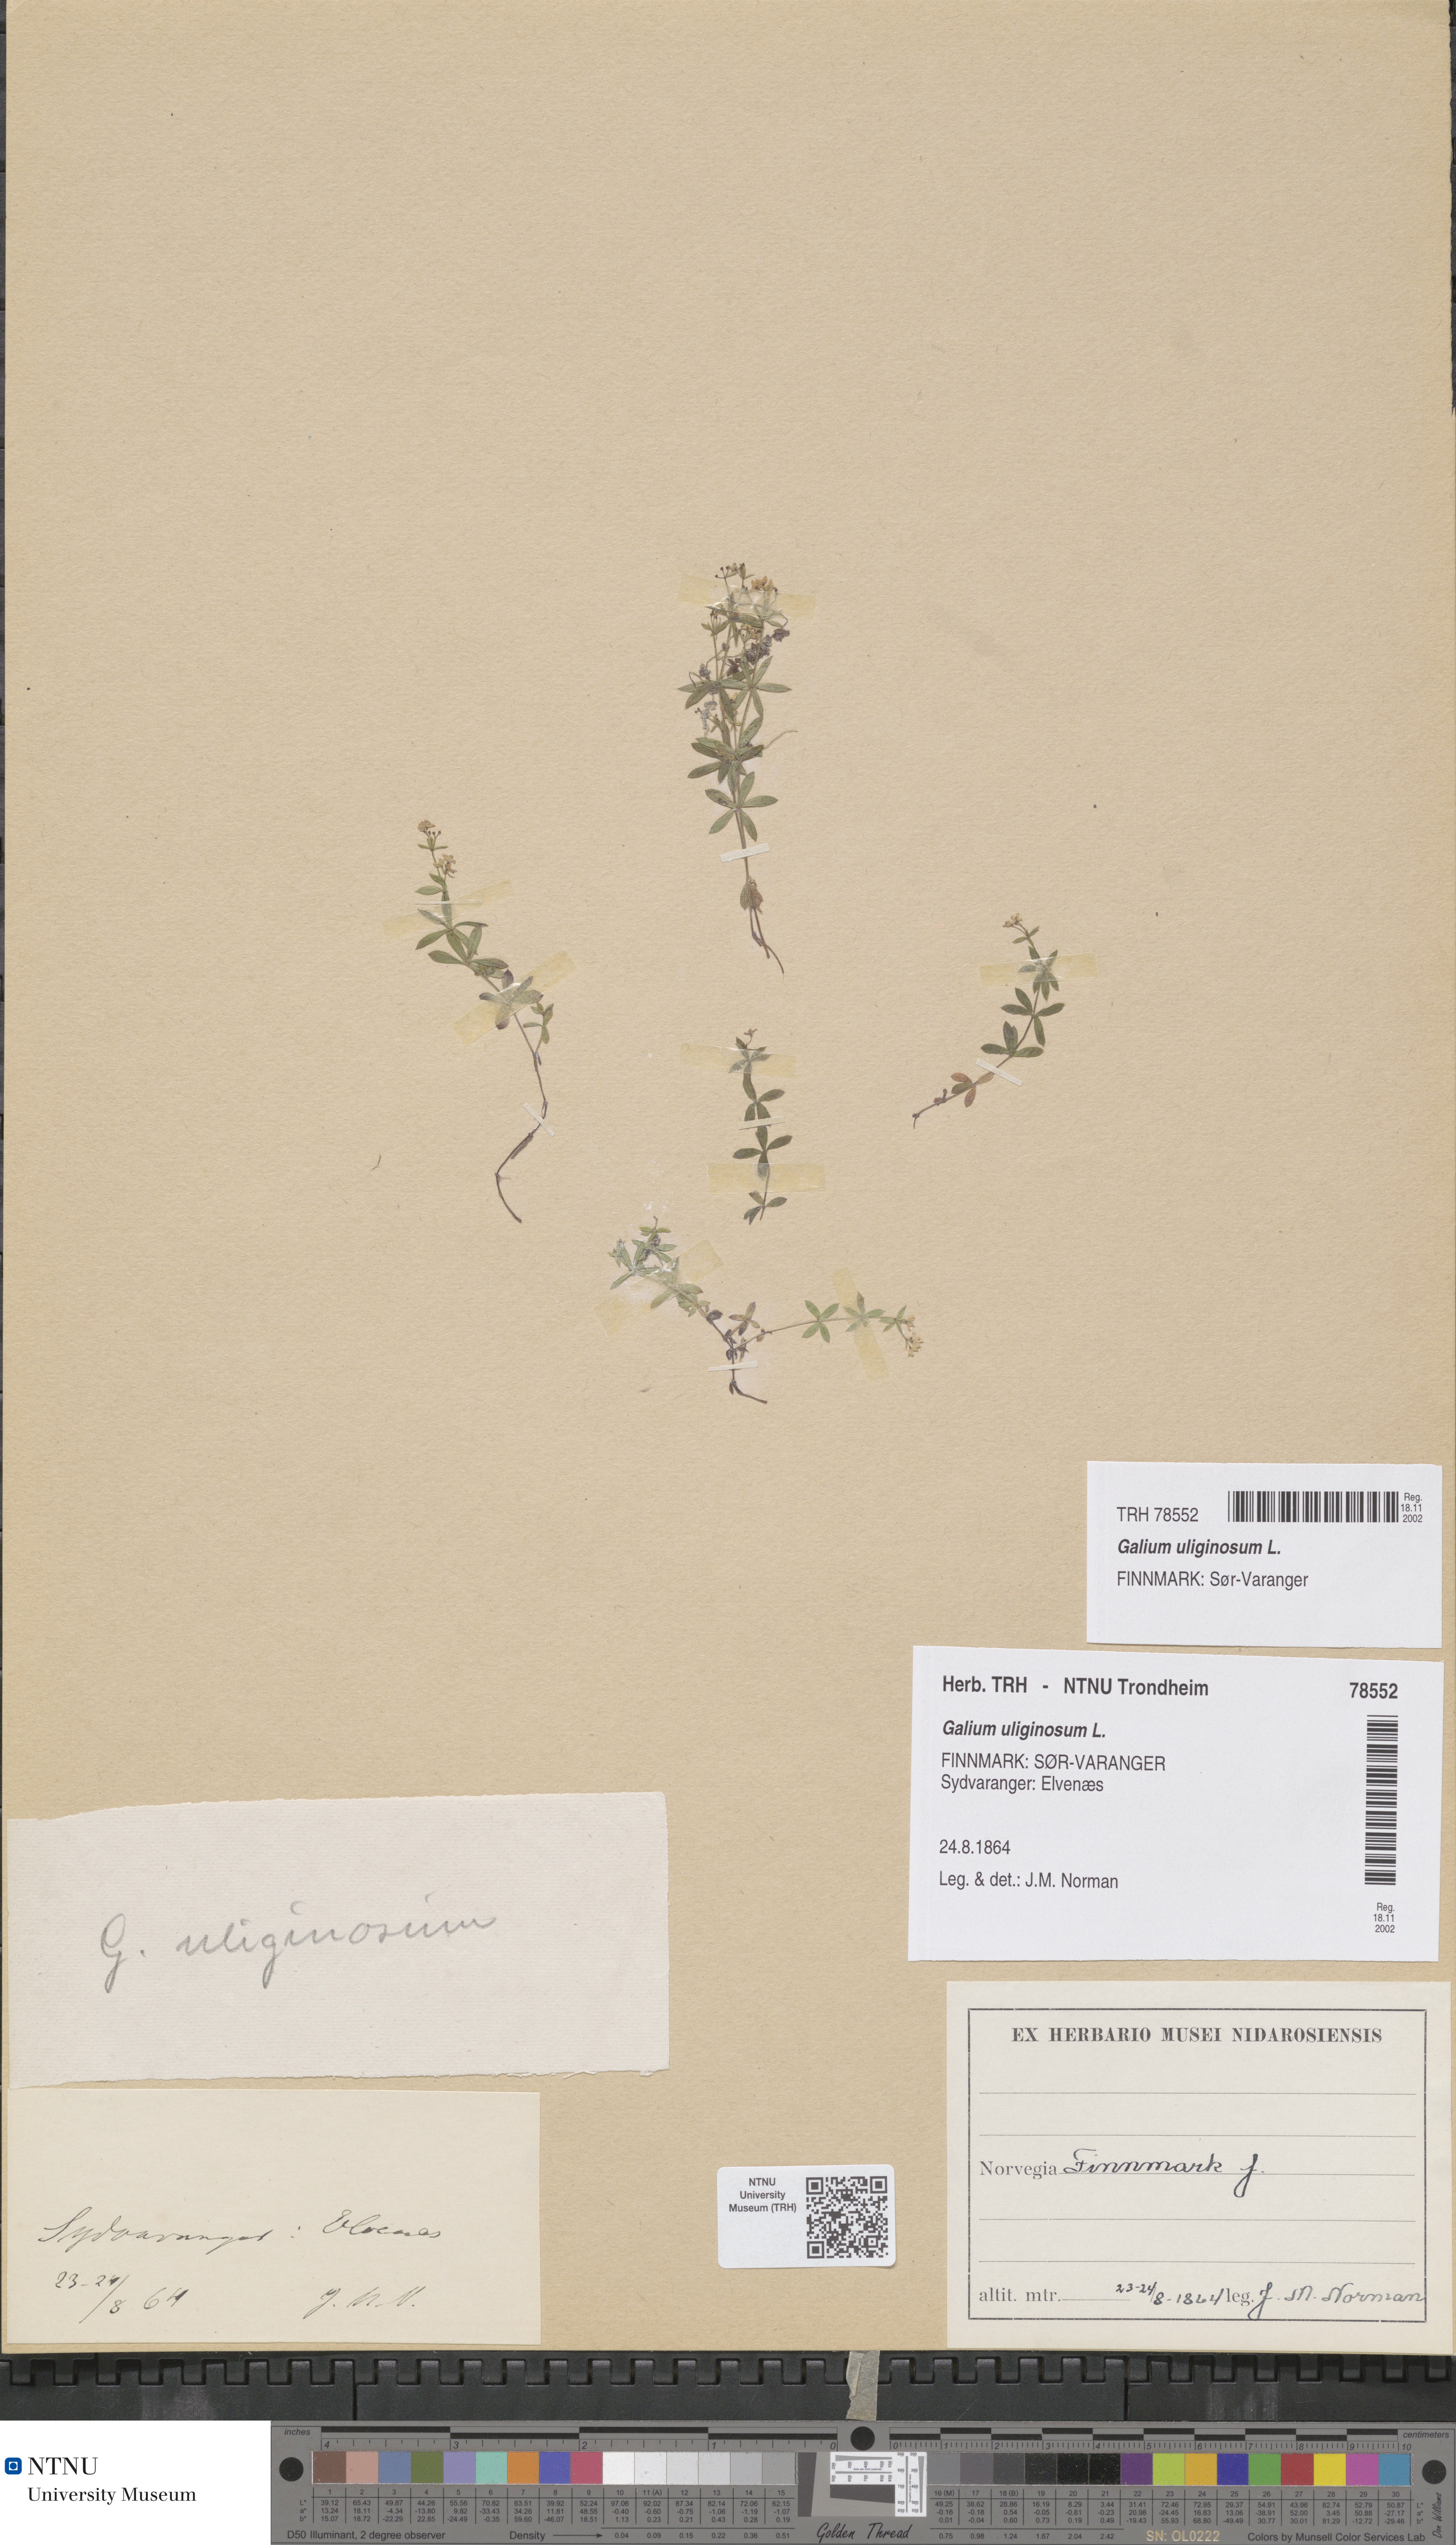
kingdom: Plantae
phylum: Tracheophyta
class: Magnoliopsida
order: Gentianales
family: Rubiaceae
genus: Galium
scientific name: Galium uliginosum
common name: Fen bedstraw
